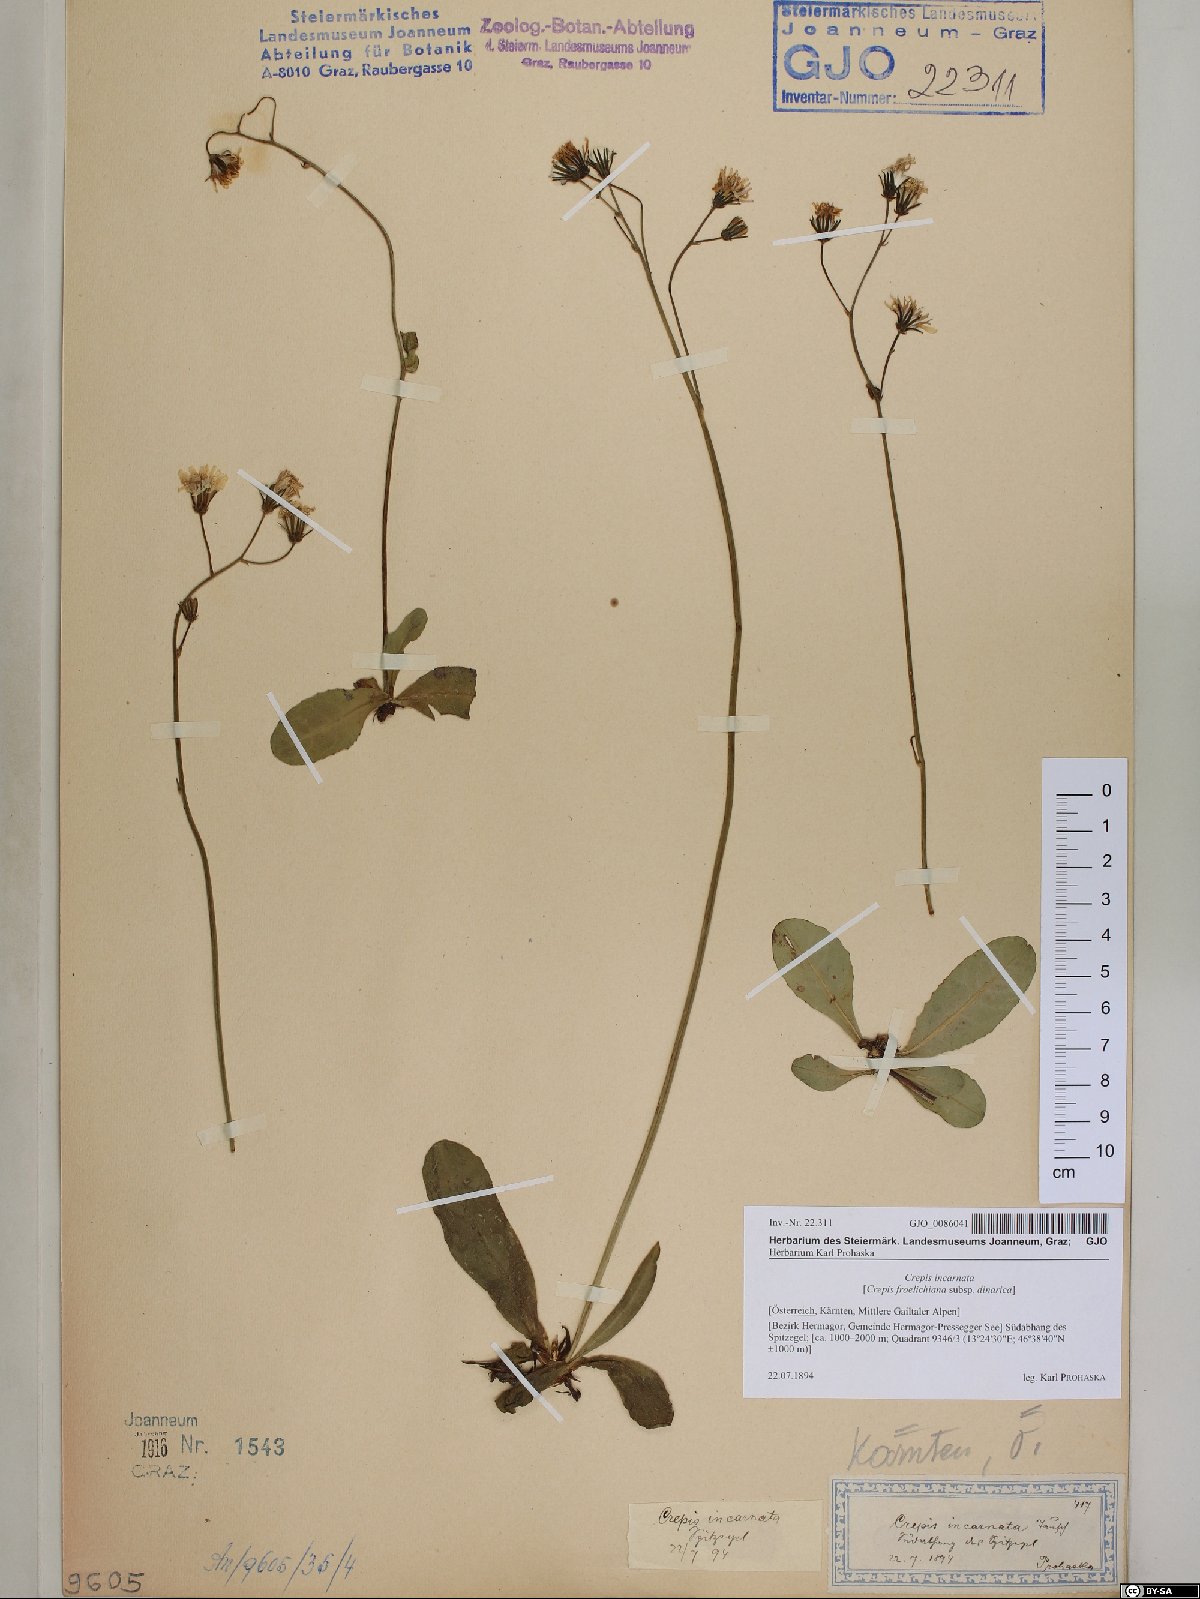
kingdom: Plantae
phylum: Tracheophyta
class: Magnoliopsida
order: Asterales
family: Asteraceae
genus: Crepis
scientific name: Crepis froelichiana
